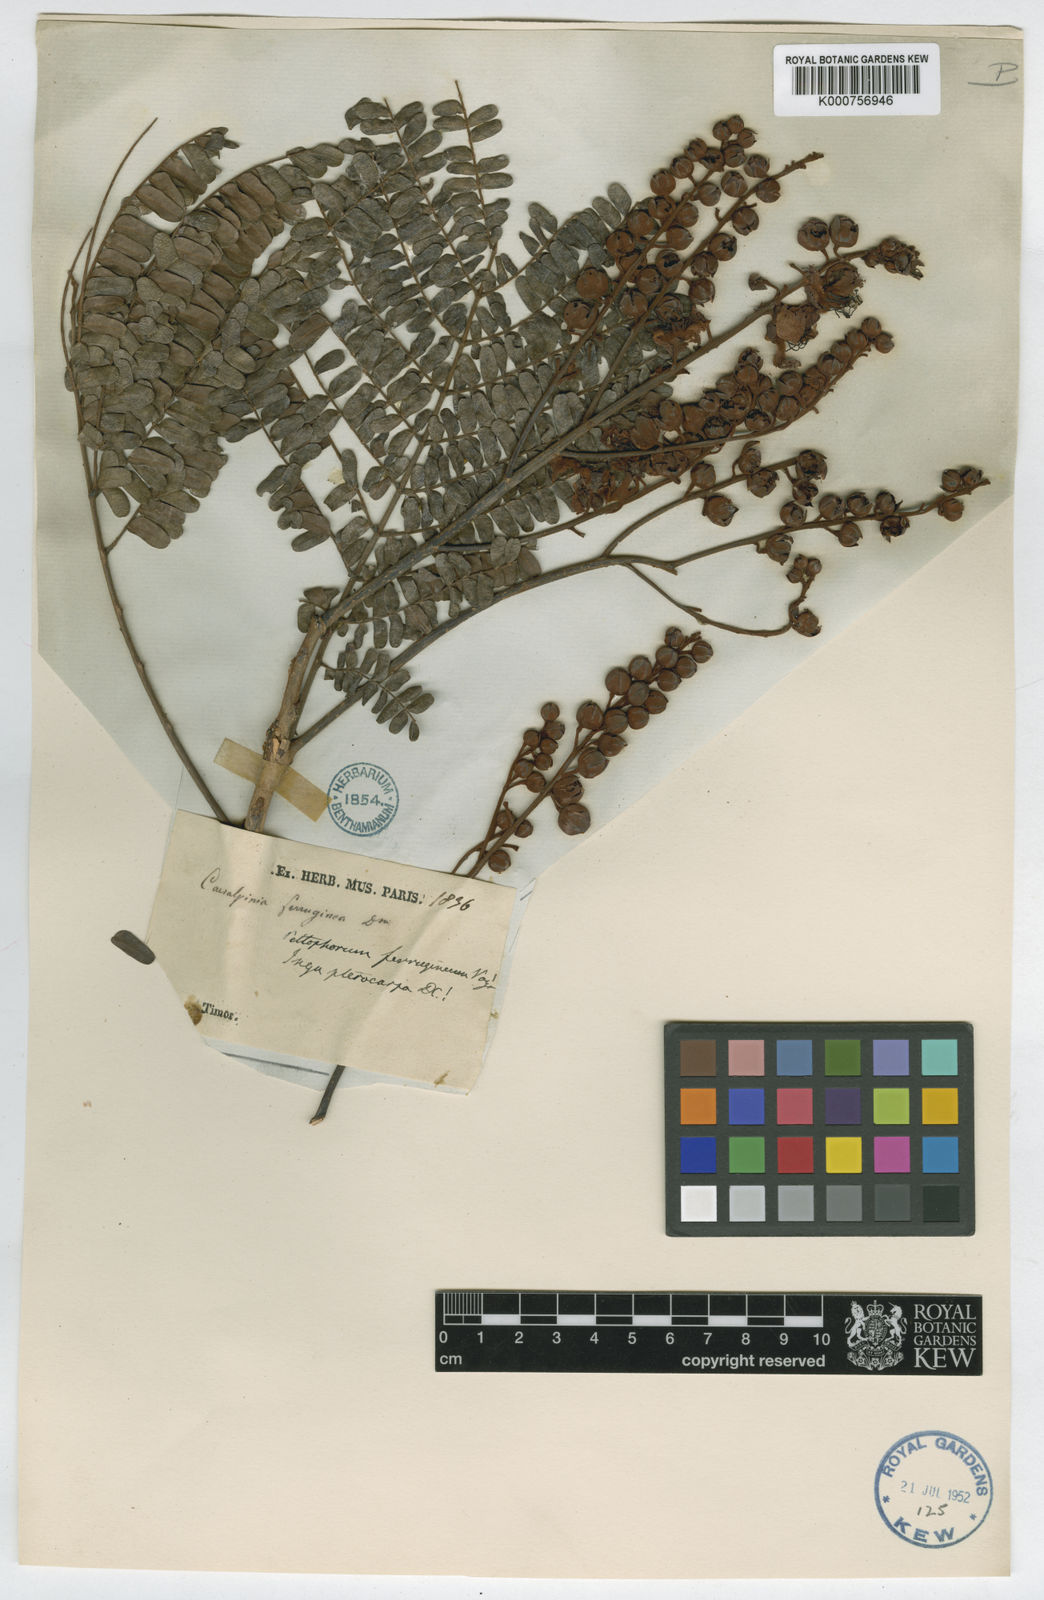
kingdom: Plantae
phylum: Tracheophyta
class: Magnoliopsida
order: Fabales
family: Fabaceae
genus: Peltophorum
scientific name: Peltophorum pterocarpum
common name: Yellow flame
